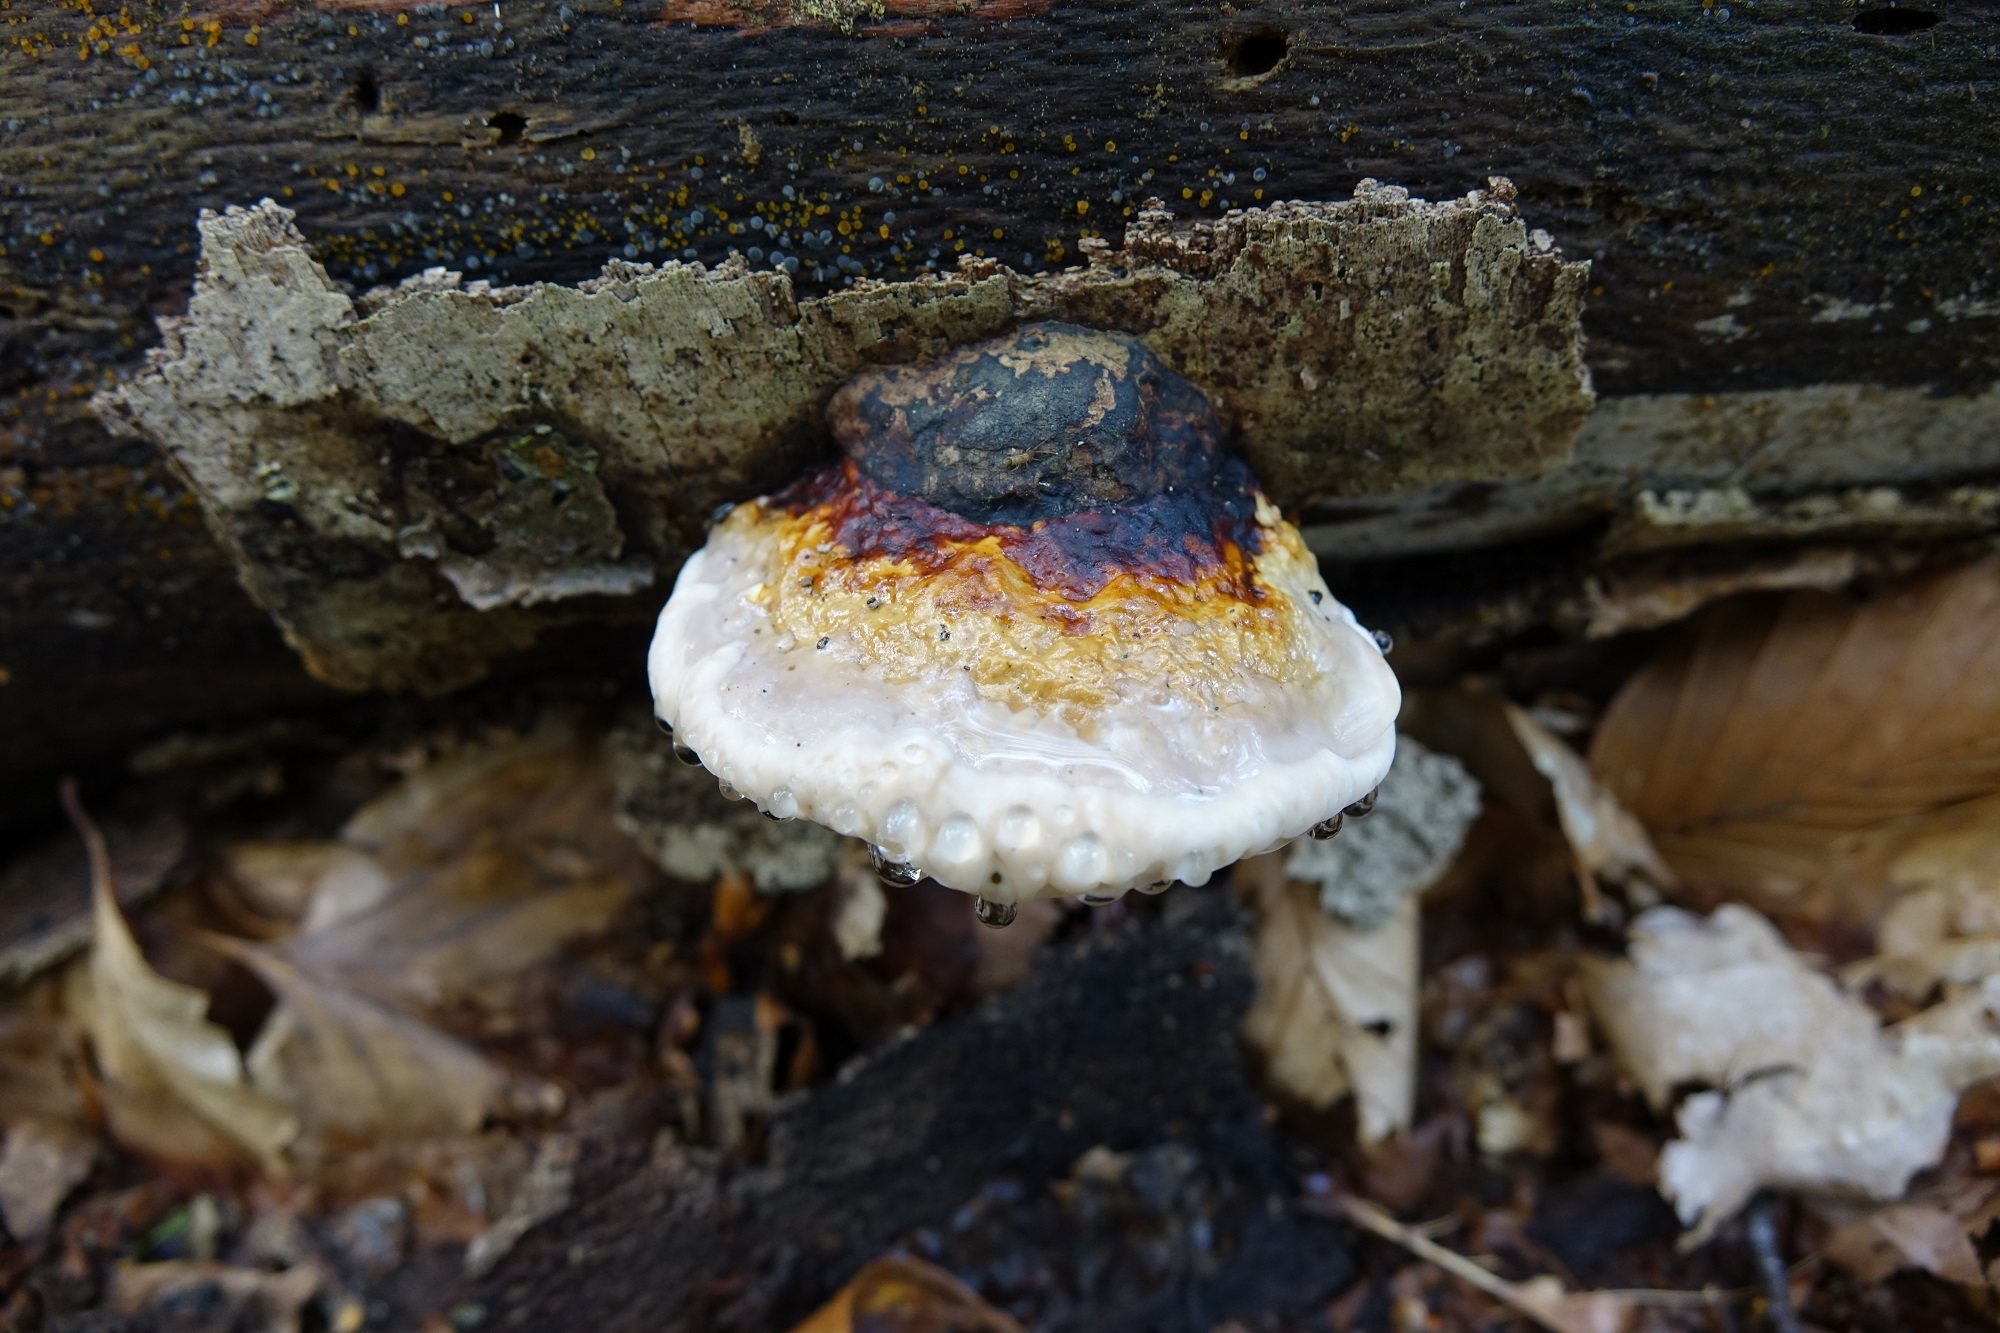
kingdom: Fungi
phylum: Basidiomycota
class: Agaricomycetes
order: Polyporales
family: Fomitopsidaceae
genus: Fomitopsis
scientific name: Fomitopsis pinicola
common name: Red-belted bracket
